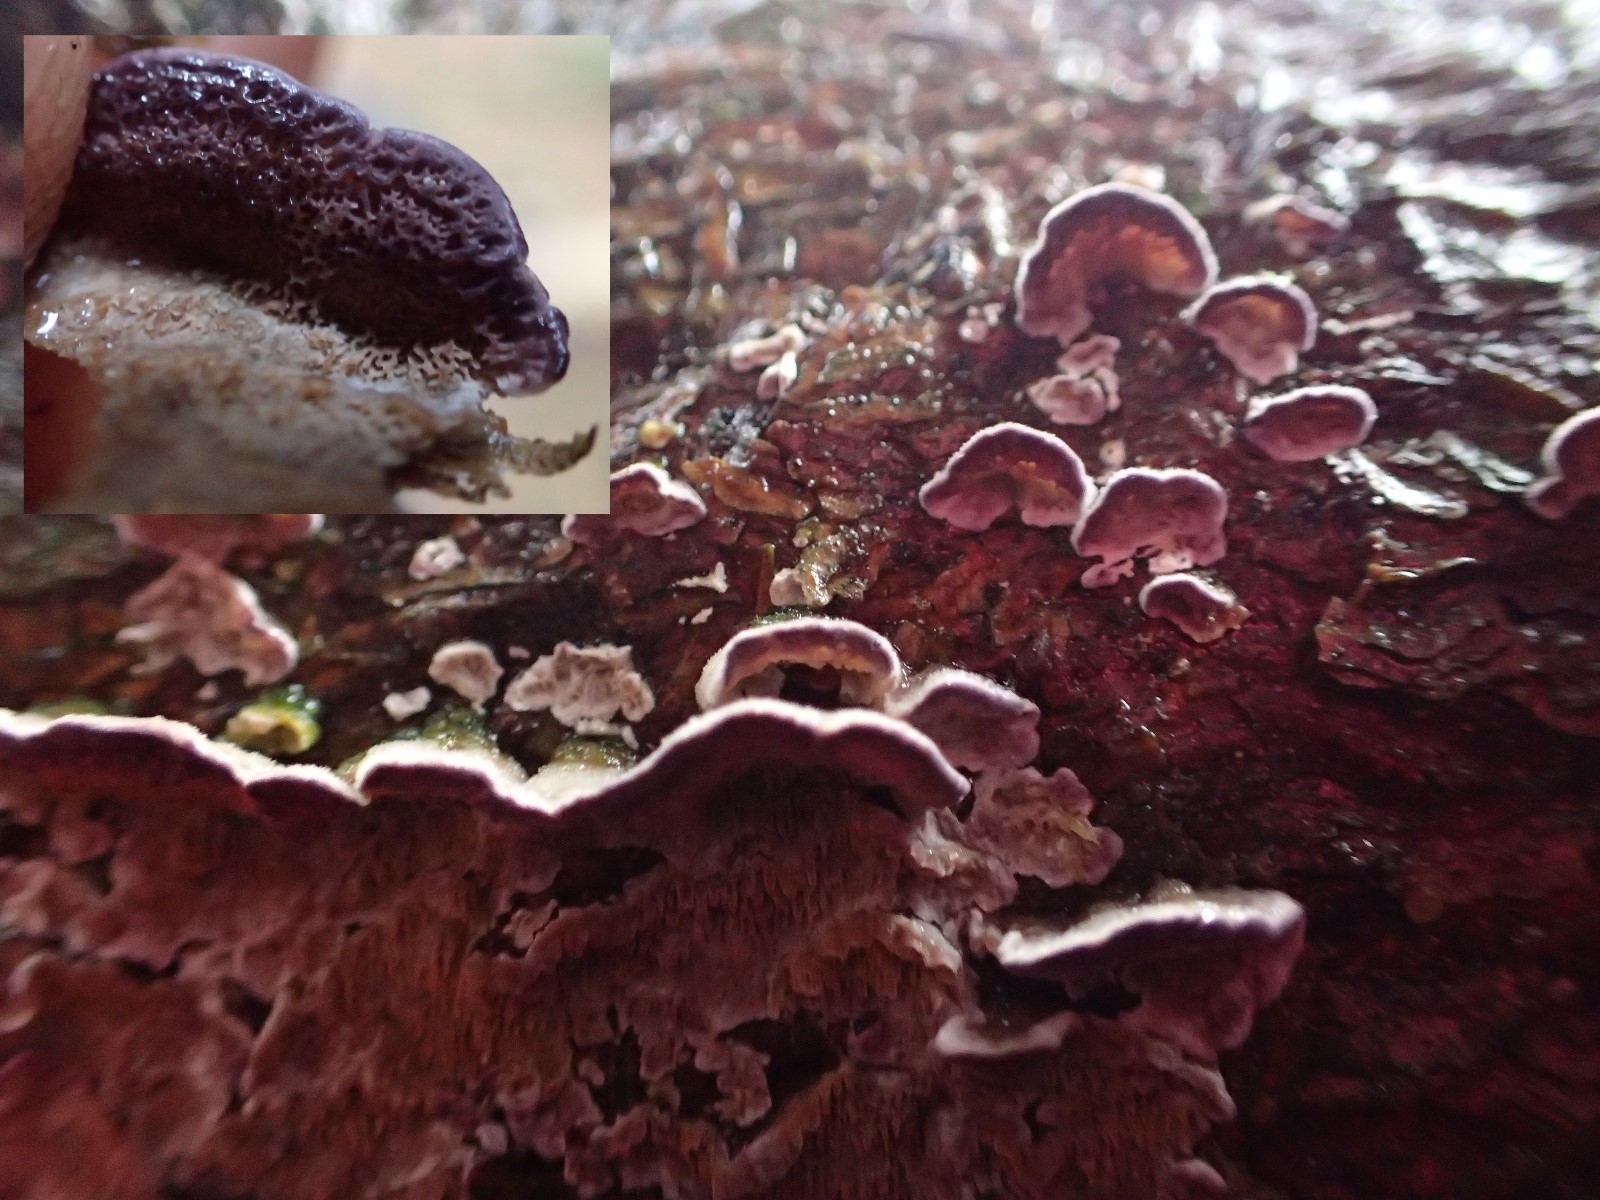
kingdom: Fungi
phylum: Basidiomycota
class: Agaricomycetes
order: Hymenochaetales
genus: Trichaptum
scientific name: Trichaptum abietinum
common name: almindelig violporesvamp
